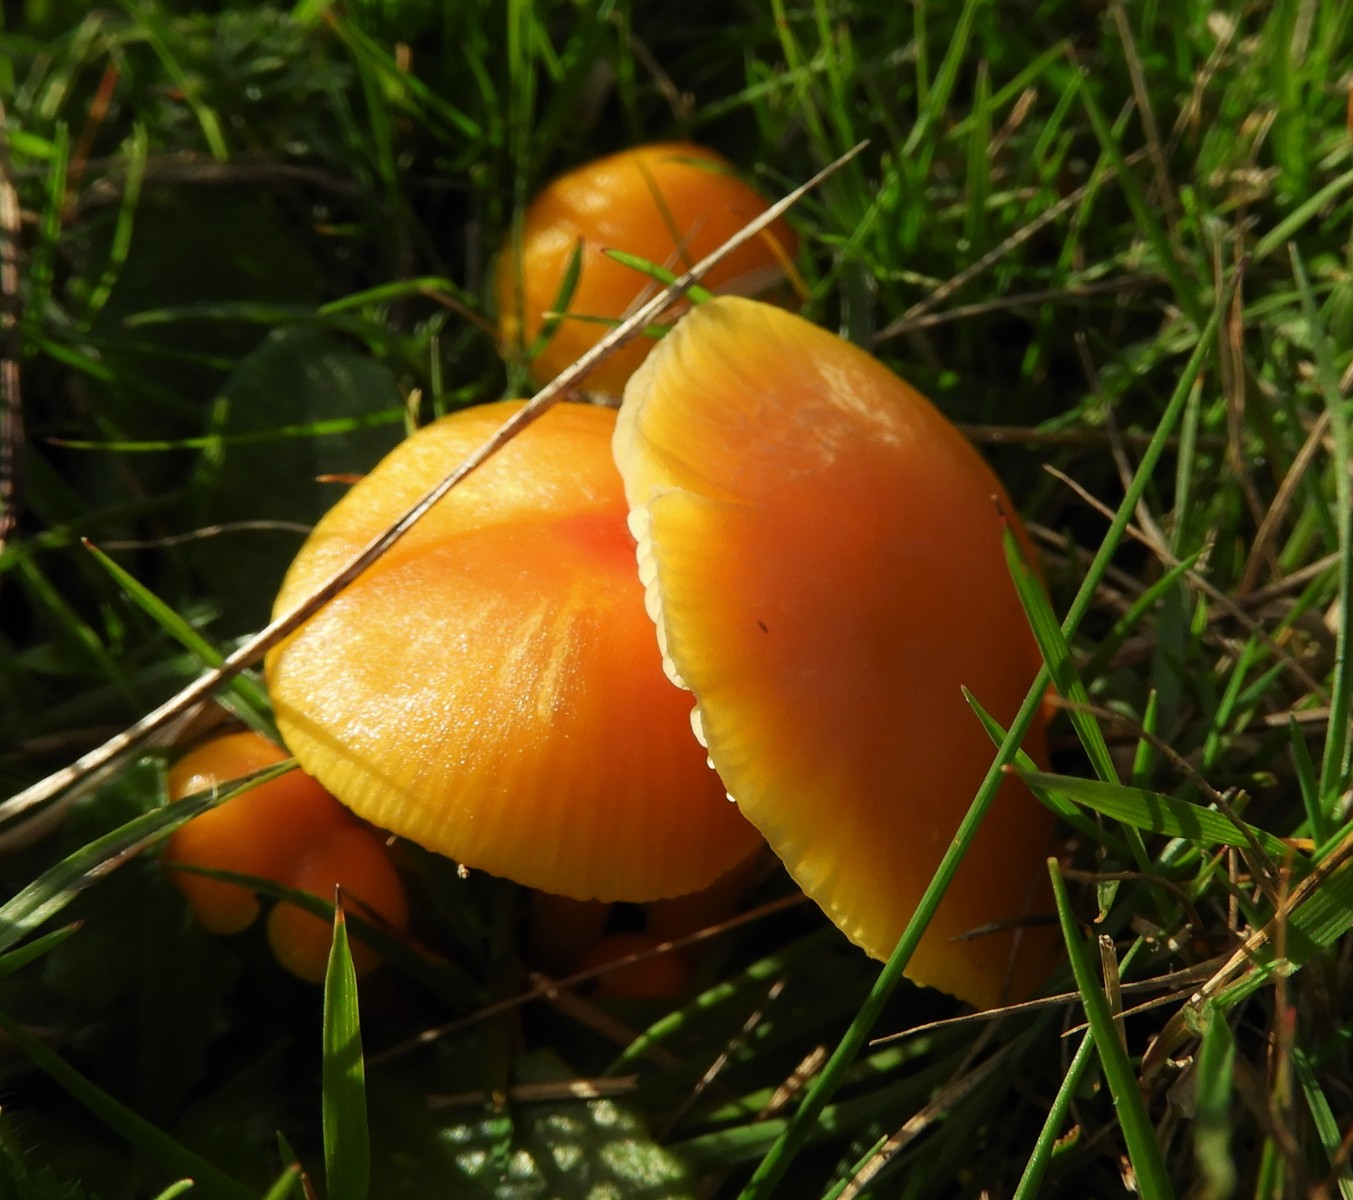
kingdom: Fungi
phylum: Basidiomycota
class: Agaricomycetes
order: Agaricales
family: Hygrophoraceae
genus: Hygrocybe
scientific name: Hygrocybe ceracea
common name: voksgul vokshat
